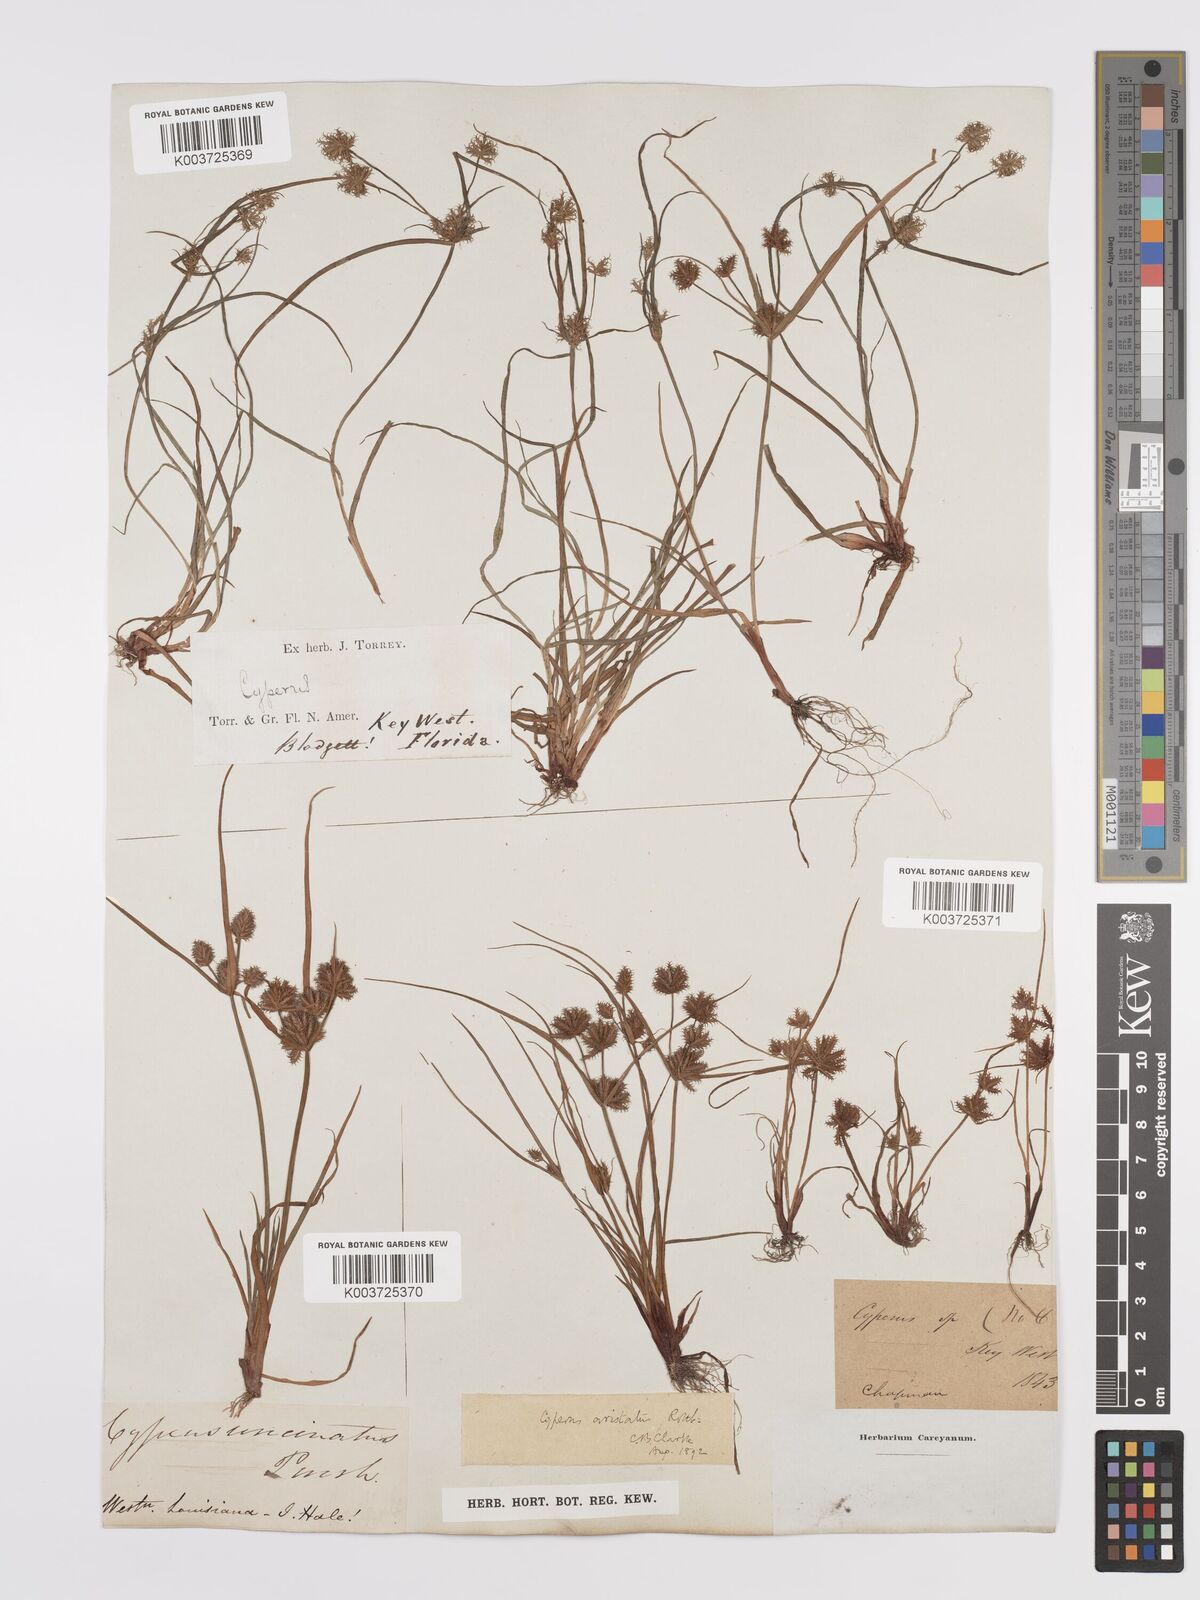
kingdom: Plantae
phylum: Tracheophyta
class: Liliopsida
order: Poales
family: Cyperaceae
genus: Cyperus
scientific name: Cyperus squarrosus
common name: Awned cyperus
